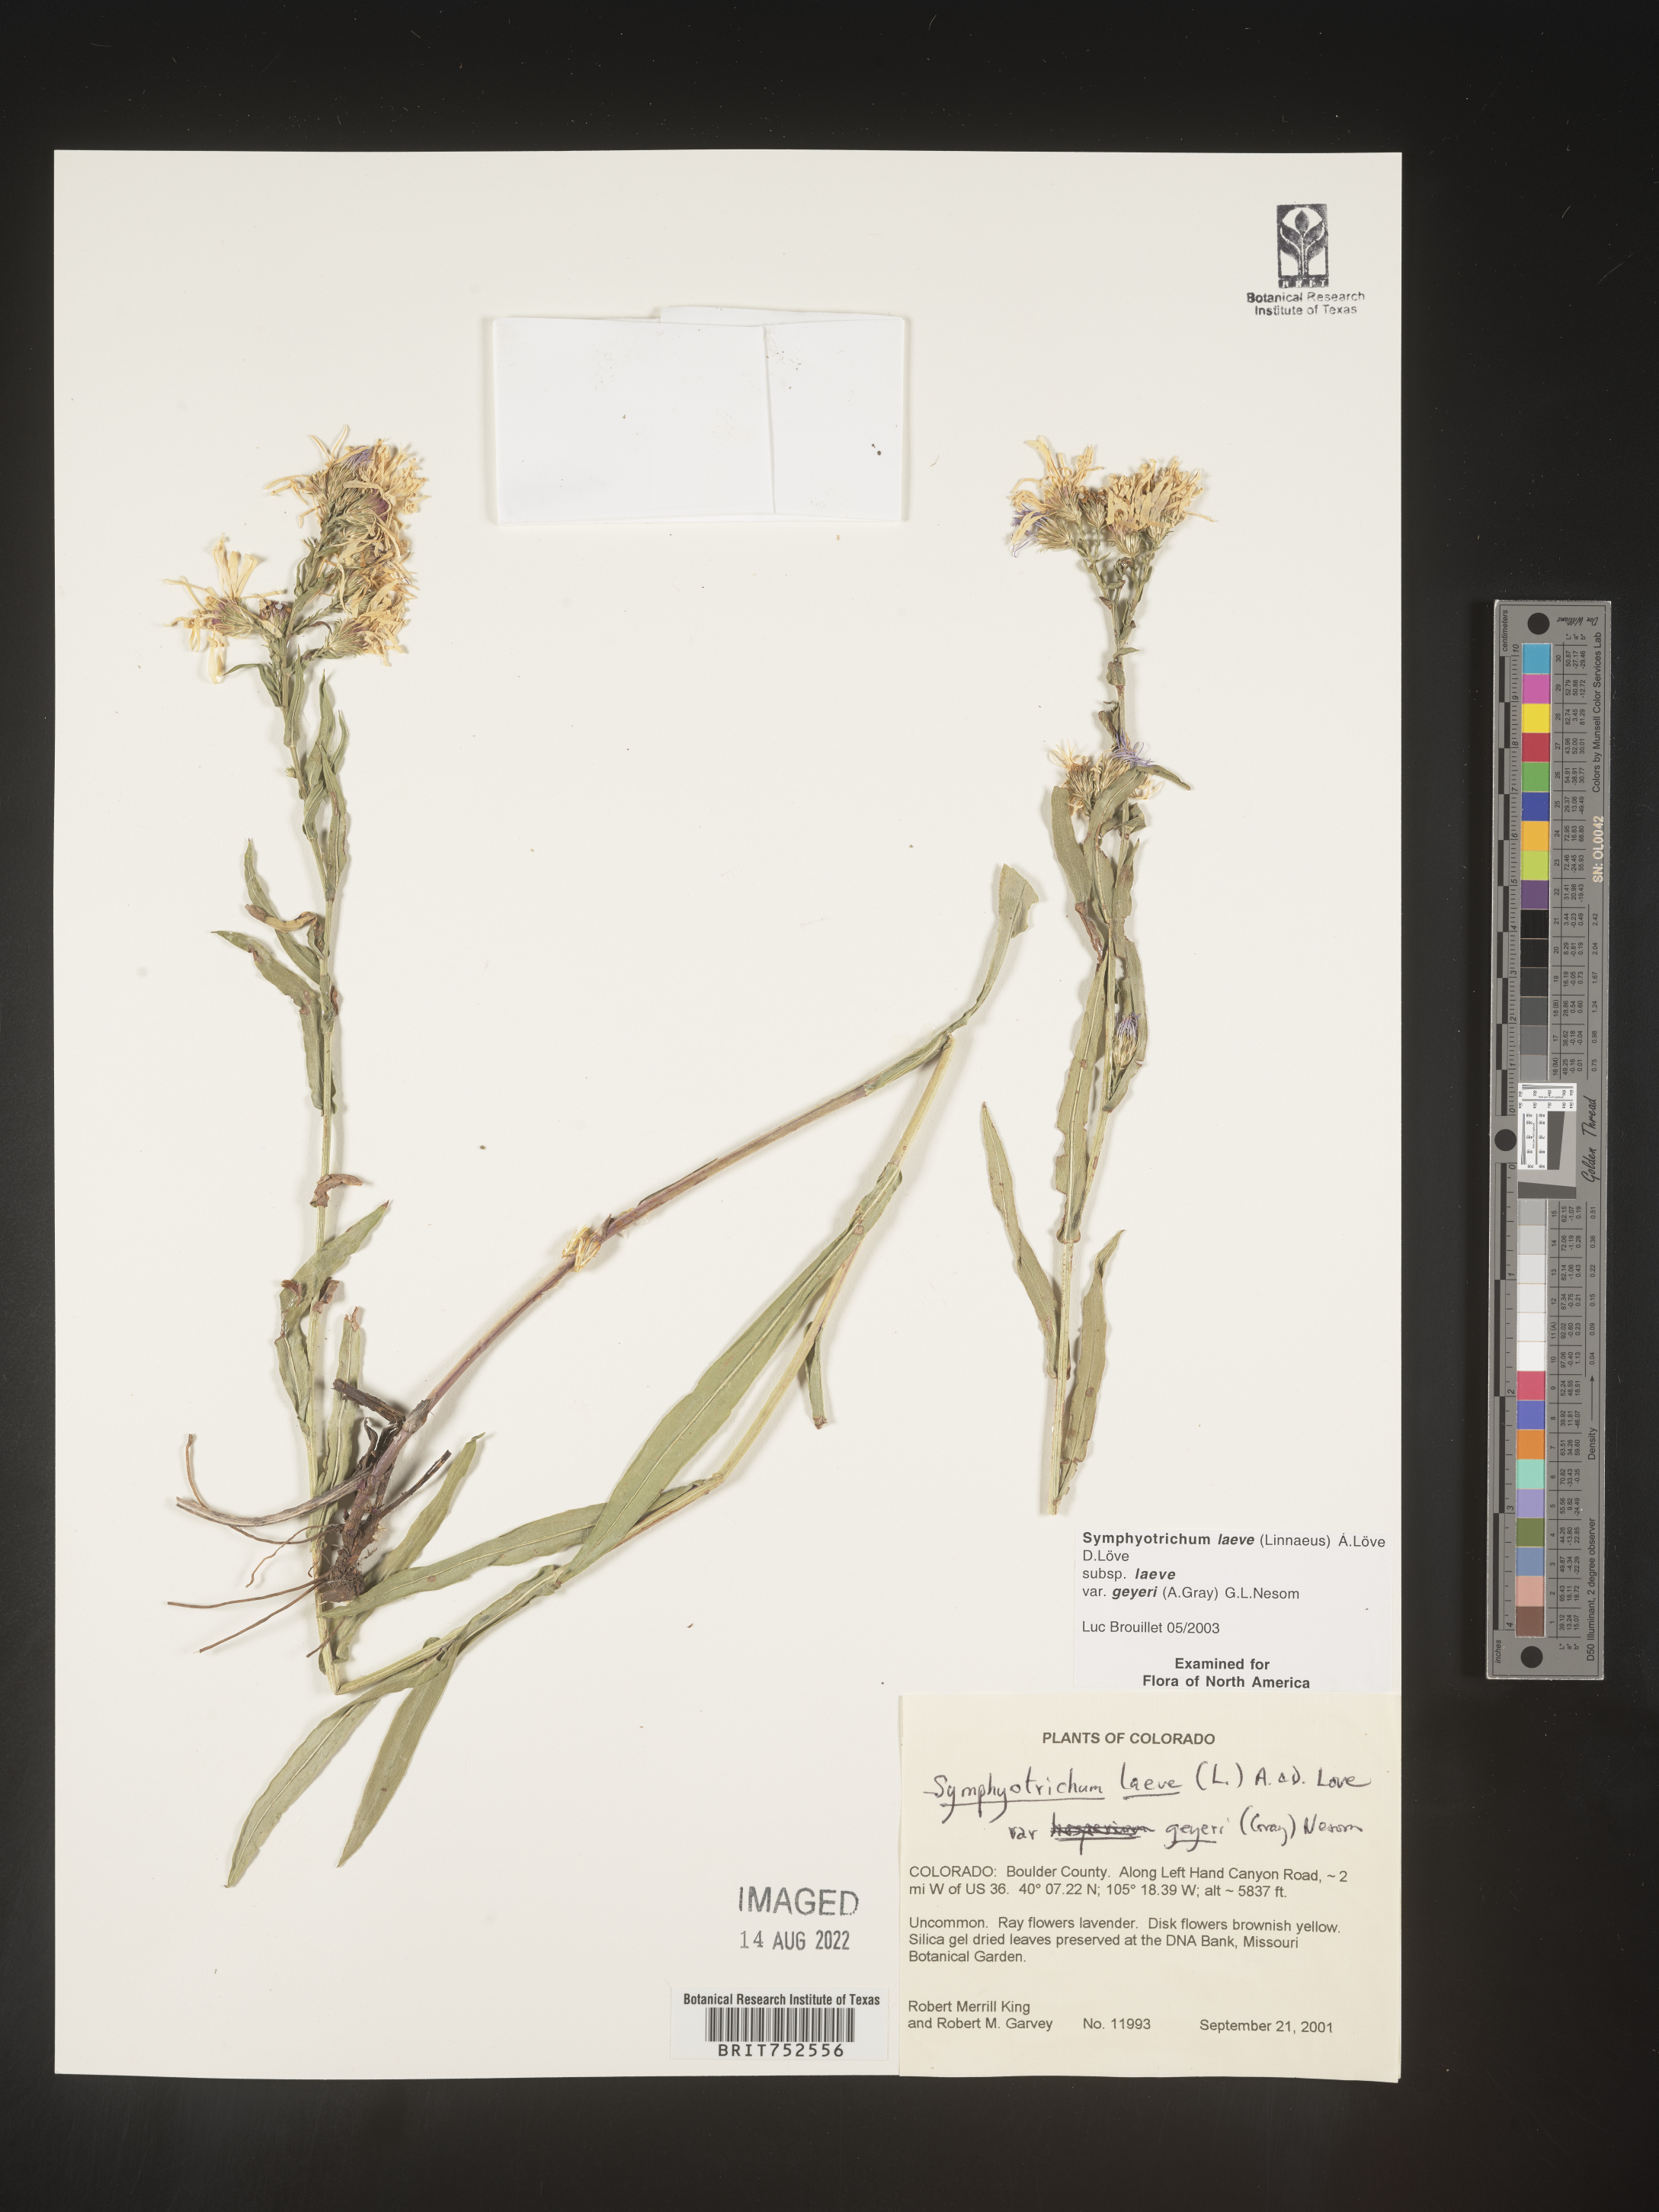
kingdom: Plantae
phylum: Tracheophyta
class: Magnoliopsida
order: Asterales
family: Asteraceae
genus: Symphyotrichum
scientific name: Symphyotrichum laeve
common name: Glaucous aster
